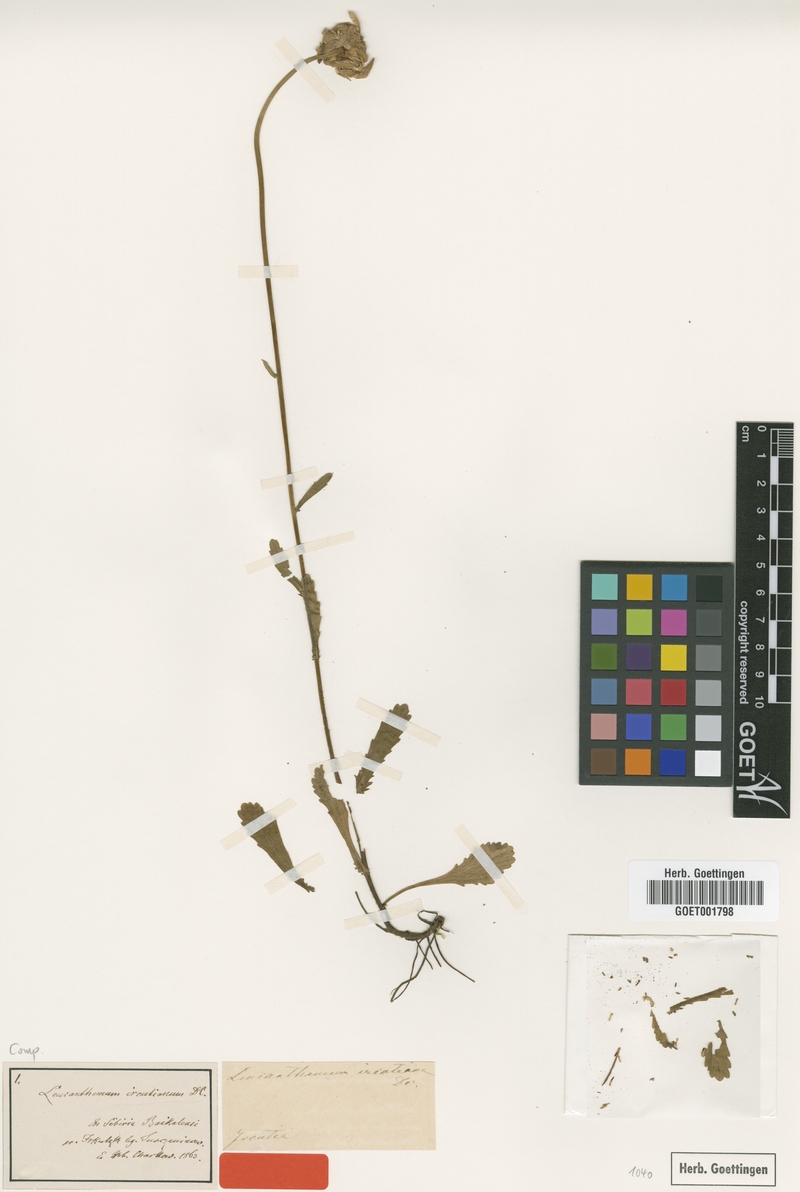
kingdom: Plantae
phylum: Tracheophyta
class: Magnoliopsida
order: Asterales
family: Asteraceae
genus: Leucanthemum
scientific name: Leucanthemum ircutianum
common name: Daisy
